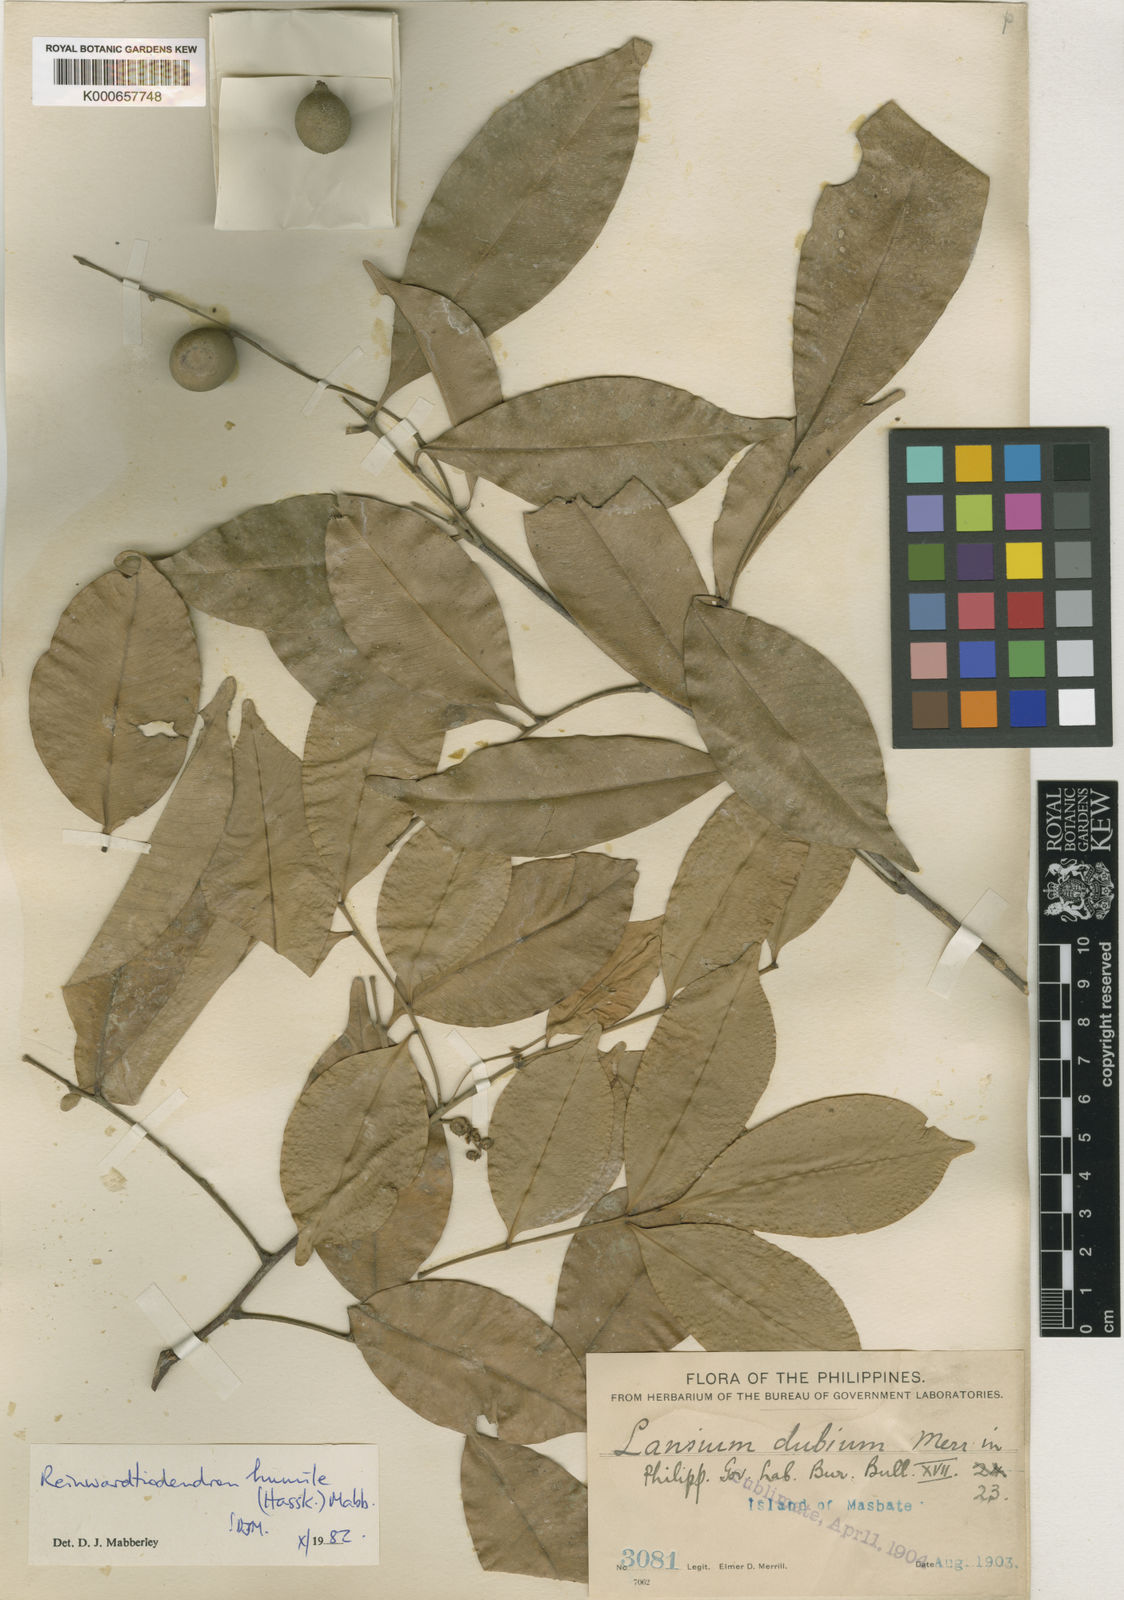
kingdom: Plantae
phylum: Tracheophyta
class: Magnoliopsida
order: Sapindales
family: Meliaceae
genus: Reinwardtiodendron
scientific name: Reinwardtiodendron humile
